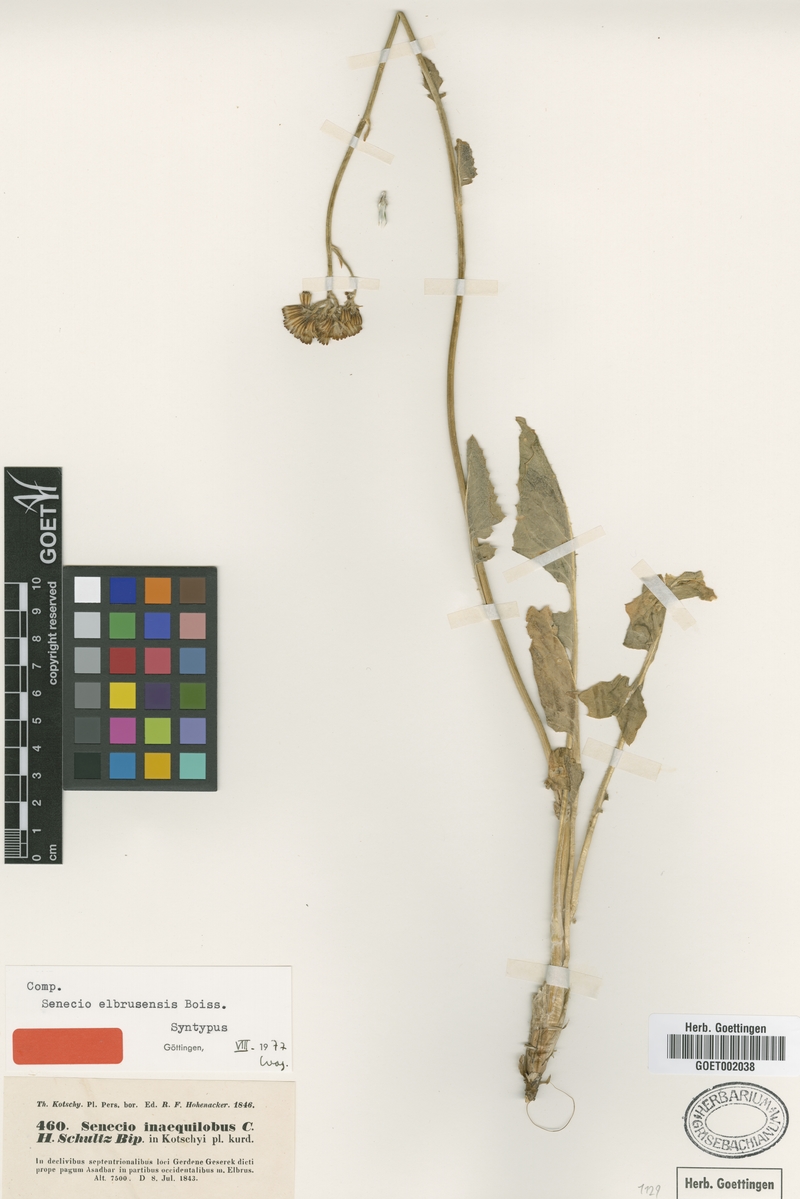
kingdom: Plantae
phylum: Tracheophyta
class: Magnoliopsida
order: Asterales
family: Asteraceae
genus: Iranecio
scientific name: Iranecio elbrusensis
